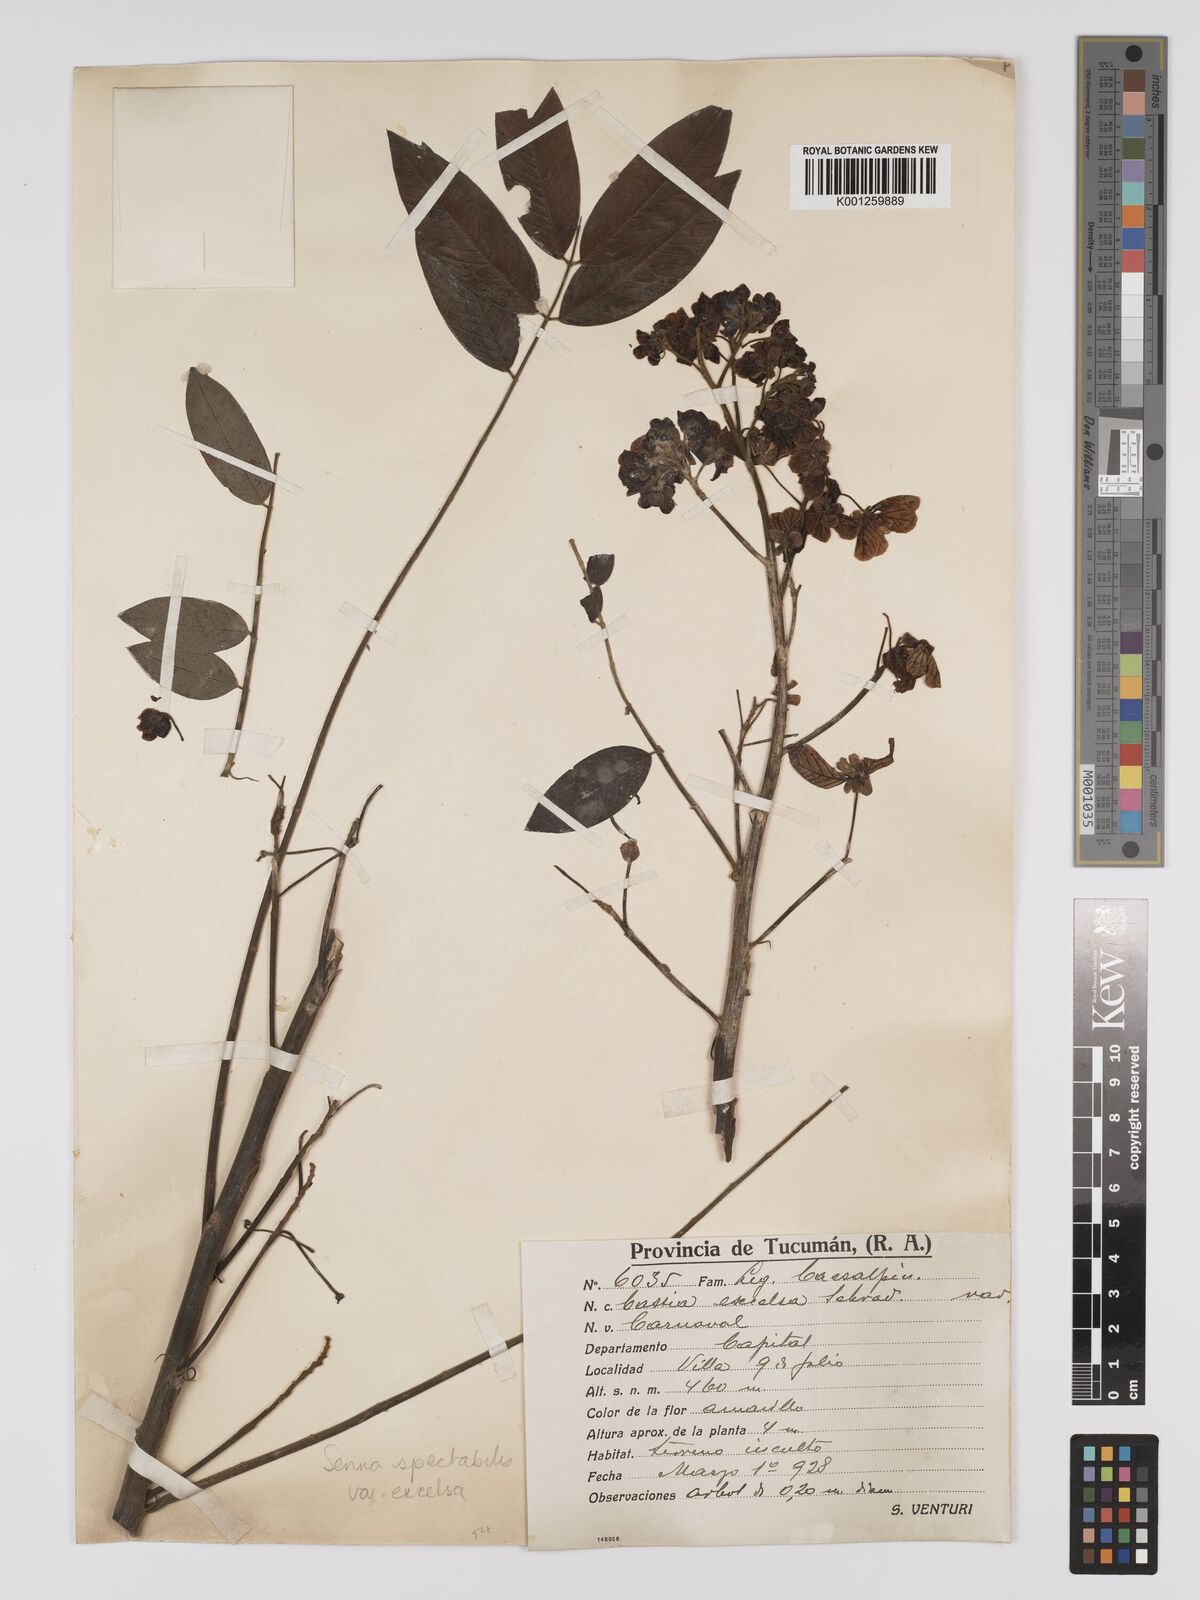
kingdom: Plantae
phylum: Tracheophyta
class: Magnoliopsida
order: Fabales
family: Fabaceae
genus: Senna
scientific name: Senna spectabilis
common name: Casia amarilla
